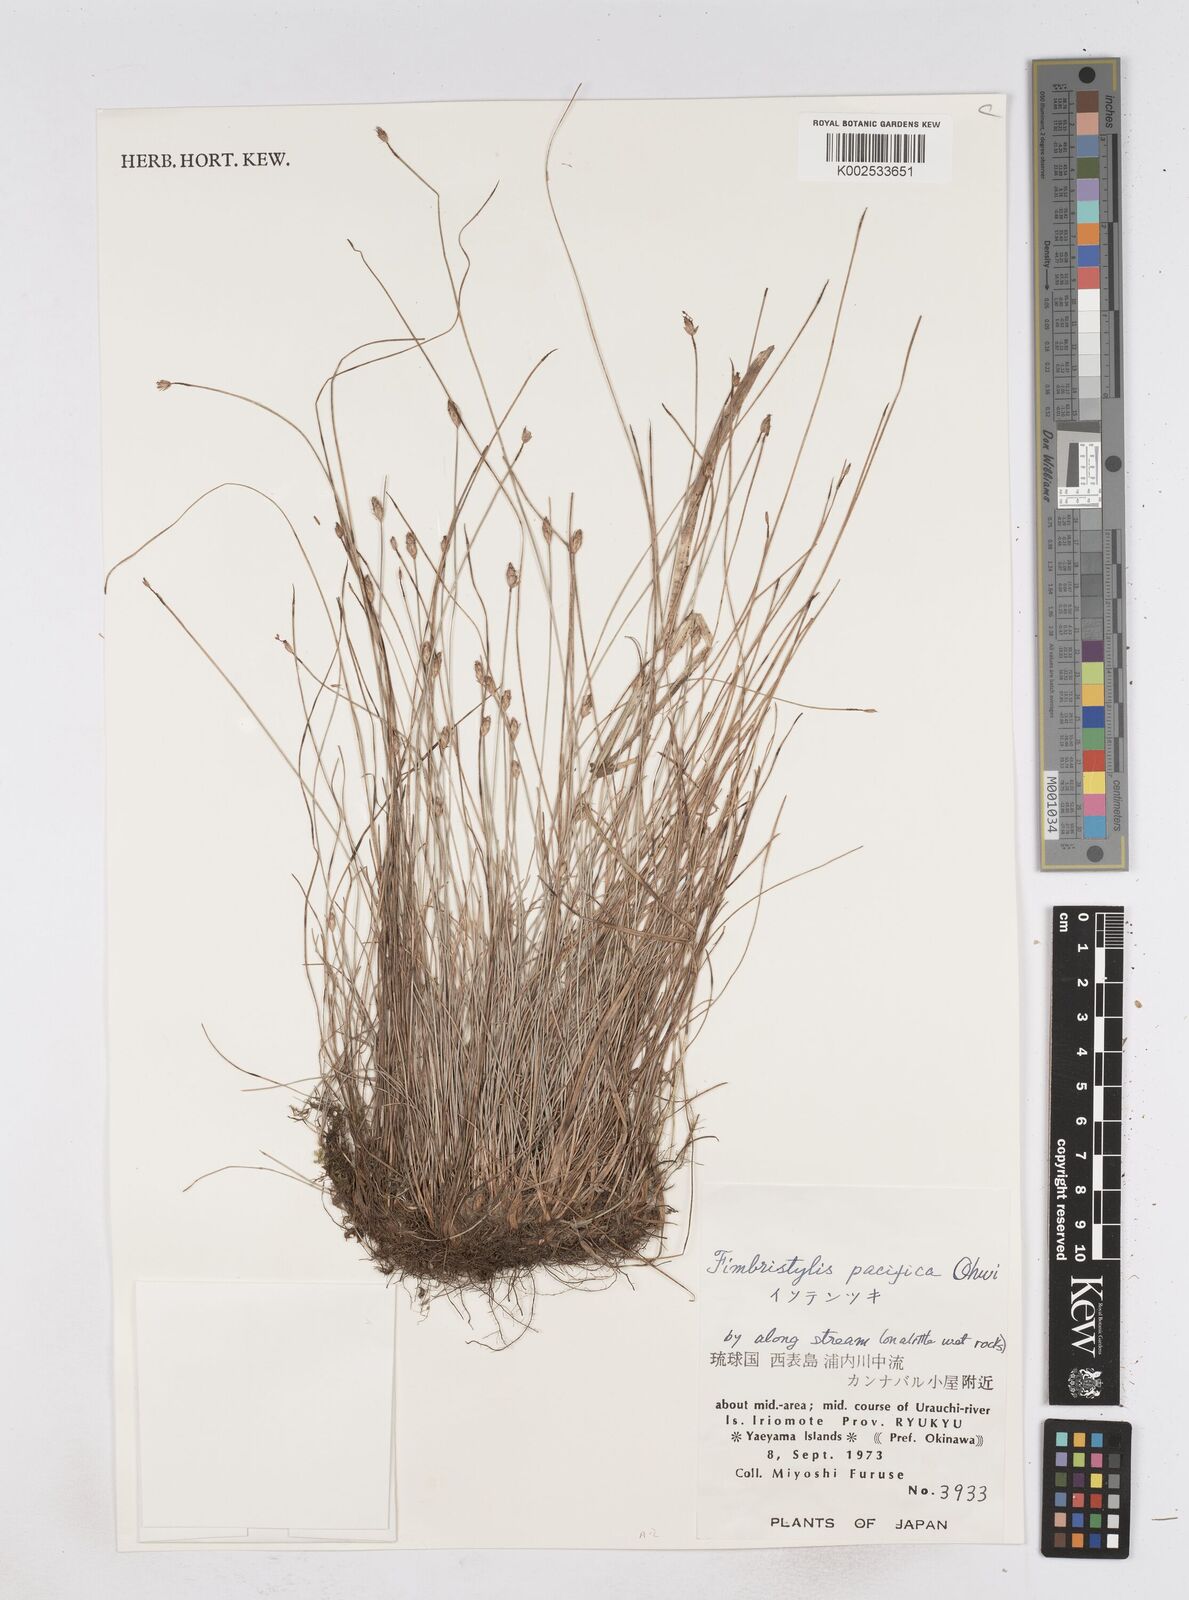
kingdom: Plantae
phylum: Tracheophyta
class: Liliopsida
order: Poales
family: Cyperaceae
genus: Fimbristylis
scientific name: Fimbristylis tristachya
